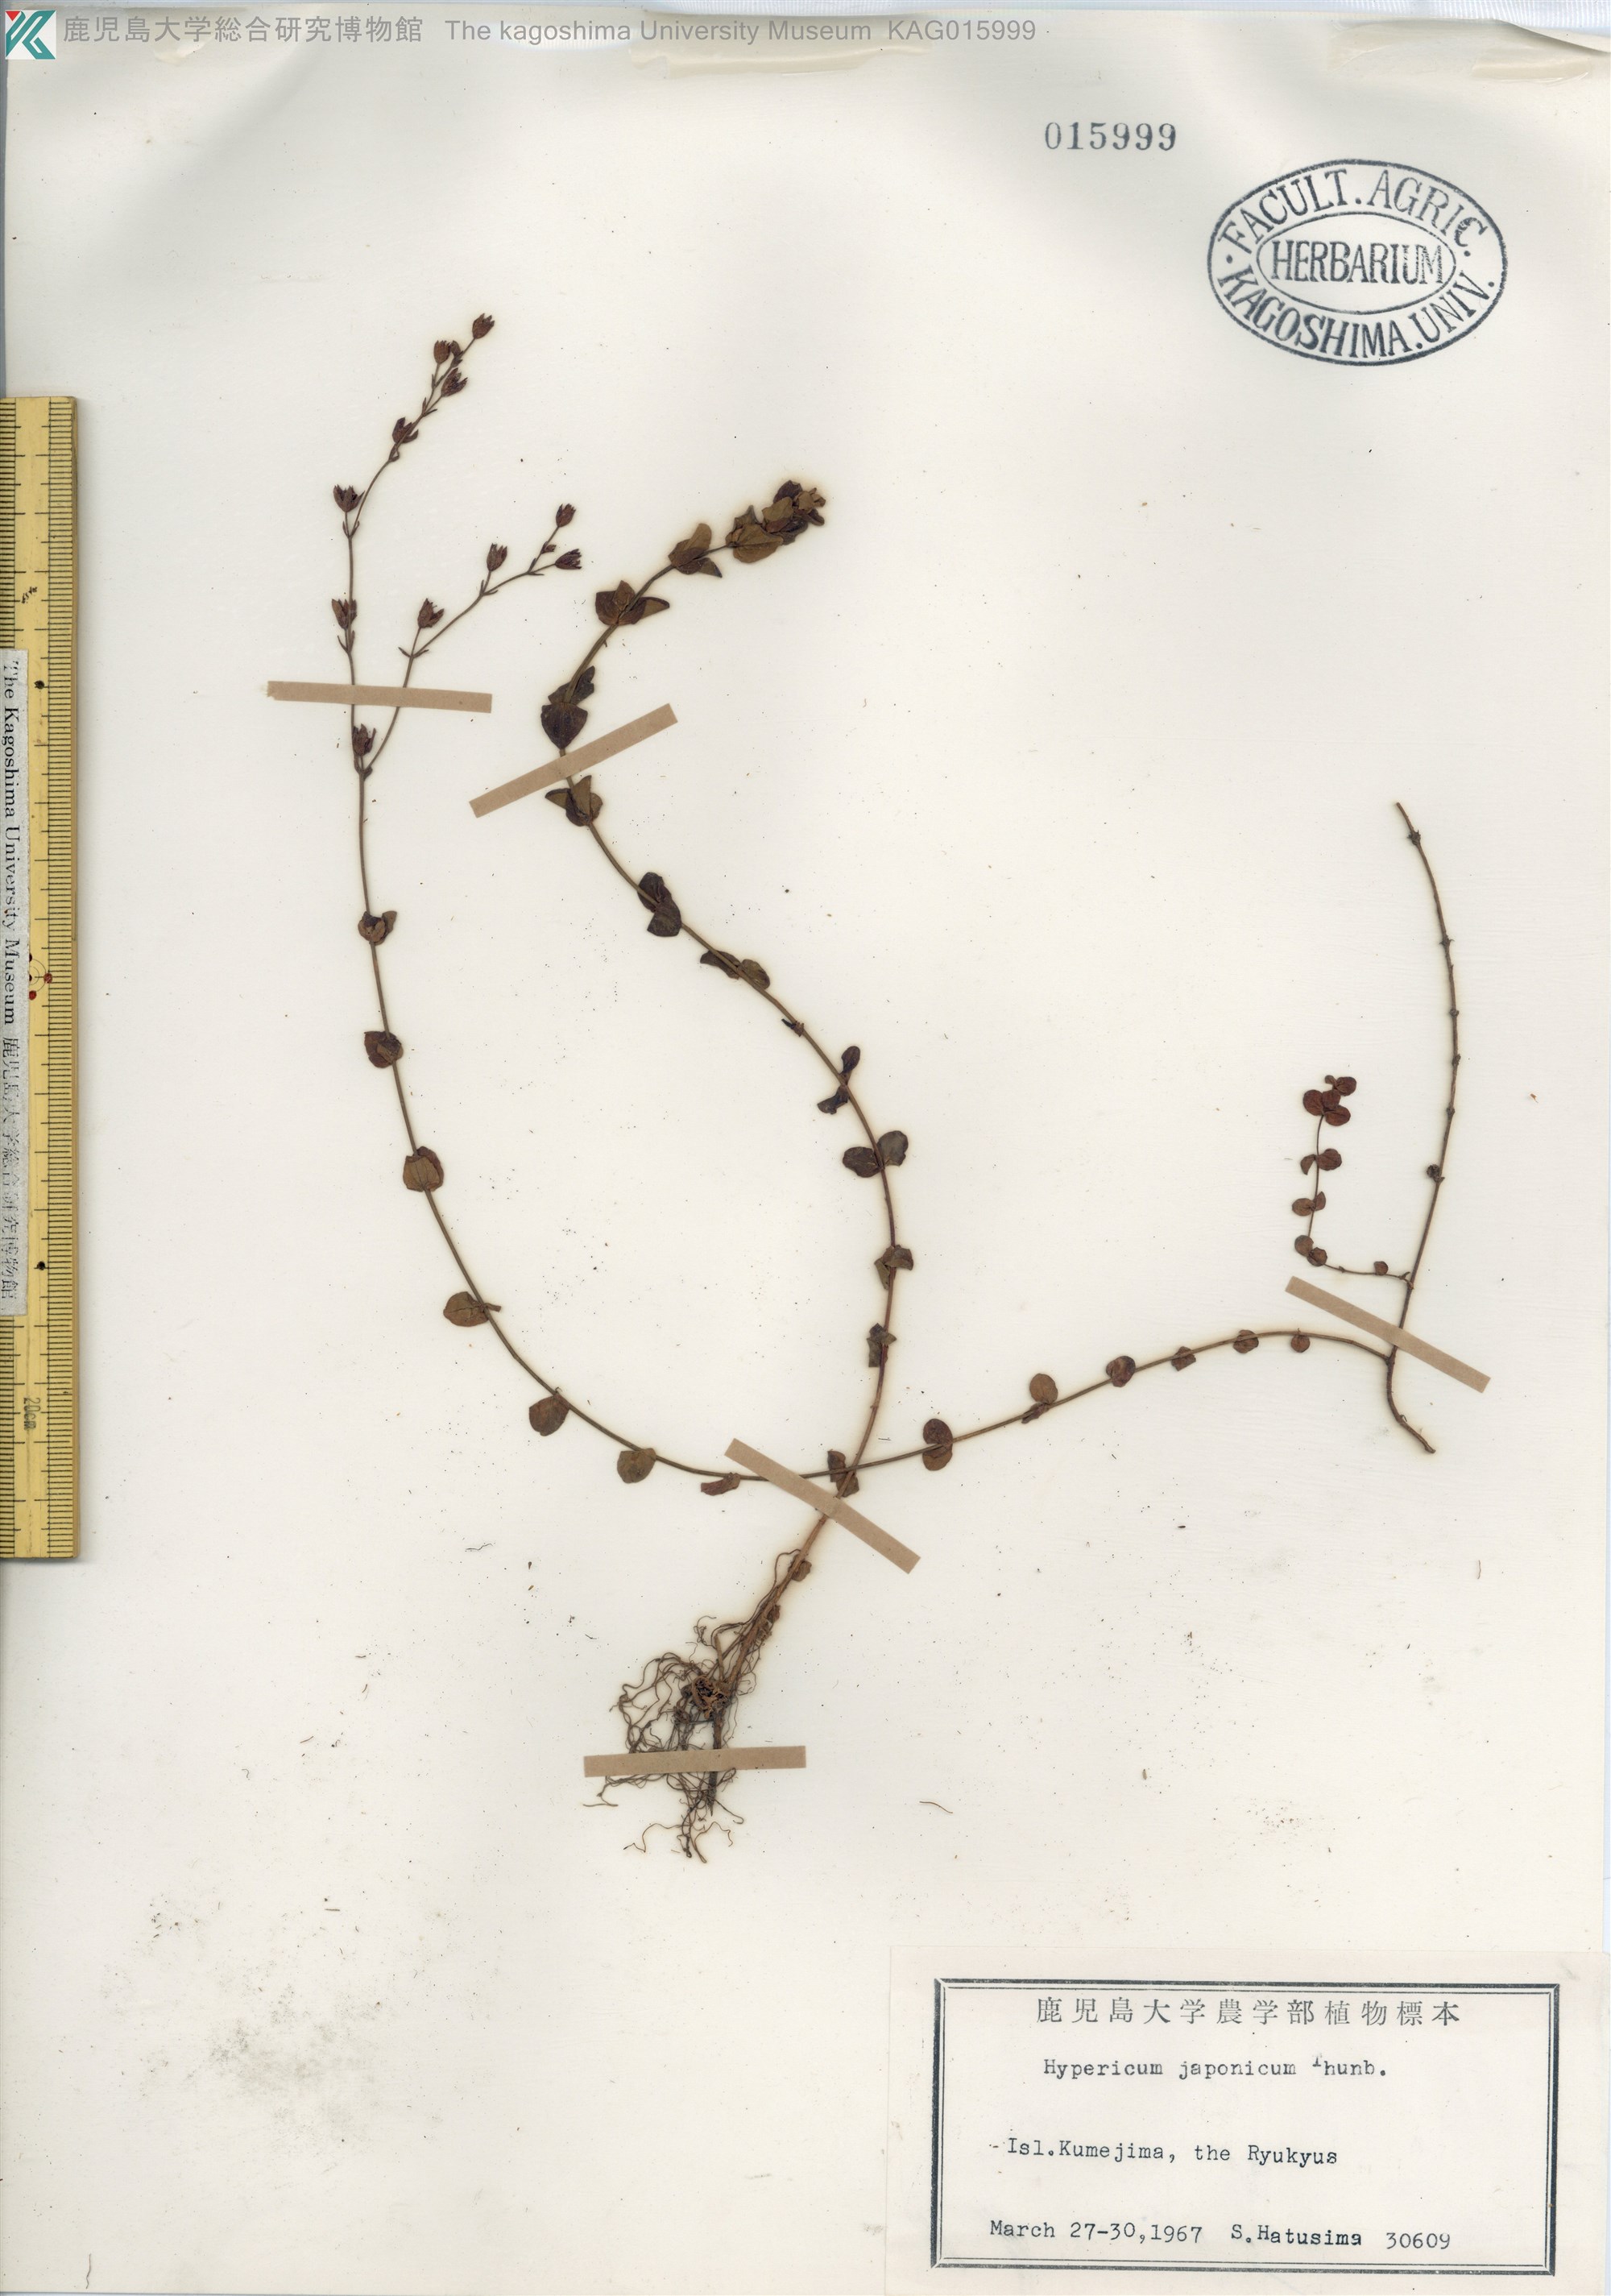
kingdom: Plantae
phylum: Tracheophyta
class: Magnoliopsida
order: Malpighiales
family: Hypericaceae
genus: Hypericum
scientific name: Hypericum japonicum
